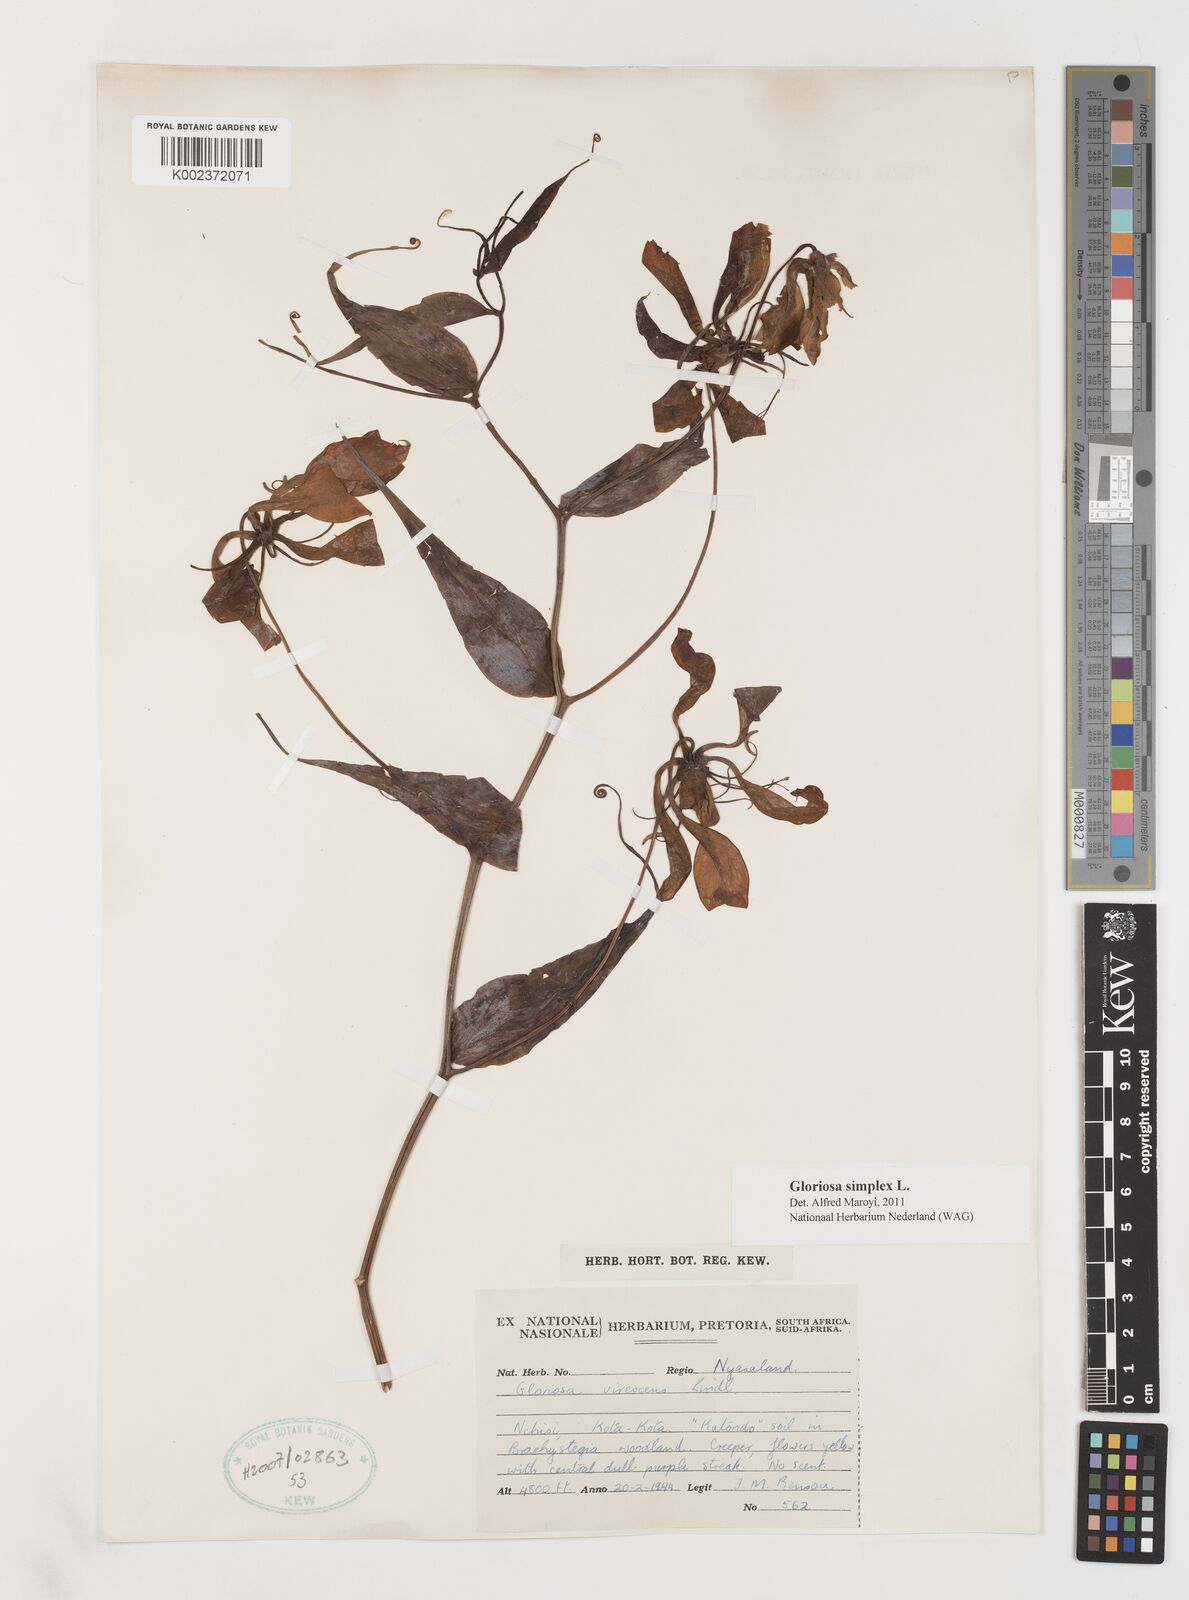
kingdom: Plantae
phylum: Tracheophyta
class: Liliopsida
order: Liliales
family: Colchicaceae
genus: Gloriosa
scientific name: Gloriosa simplex
